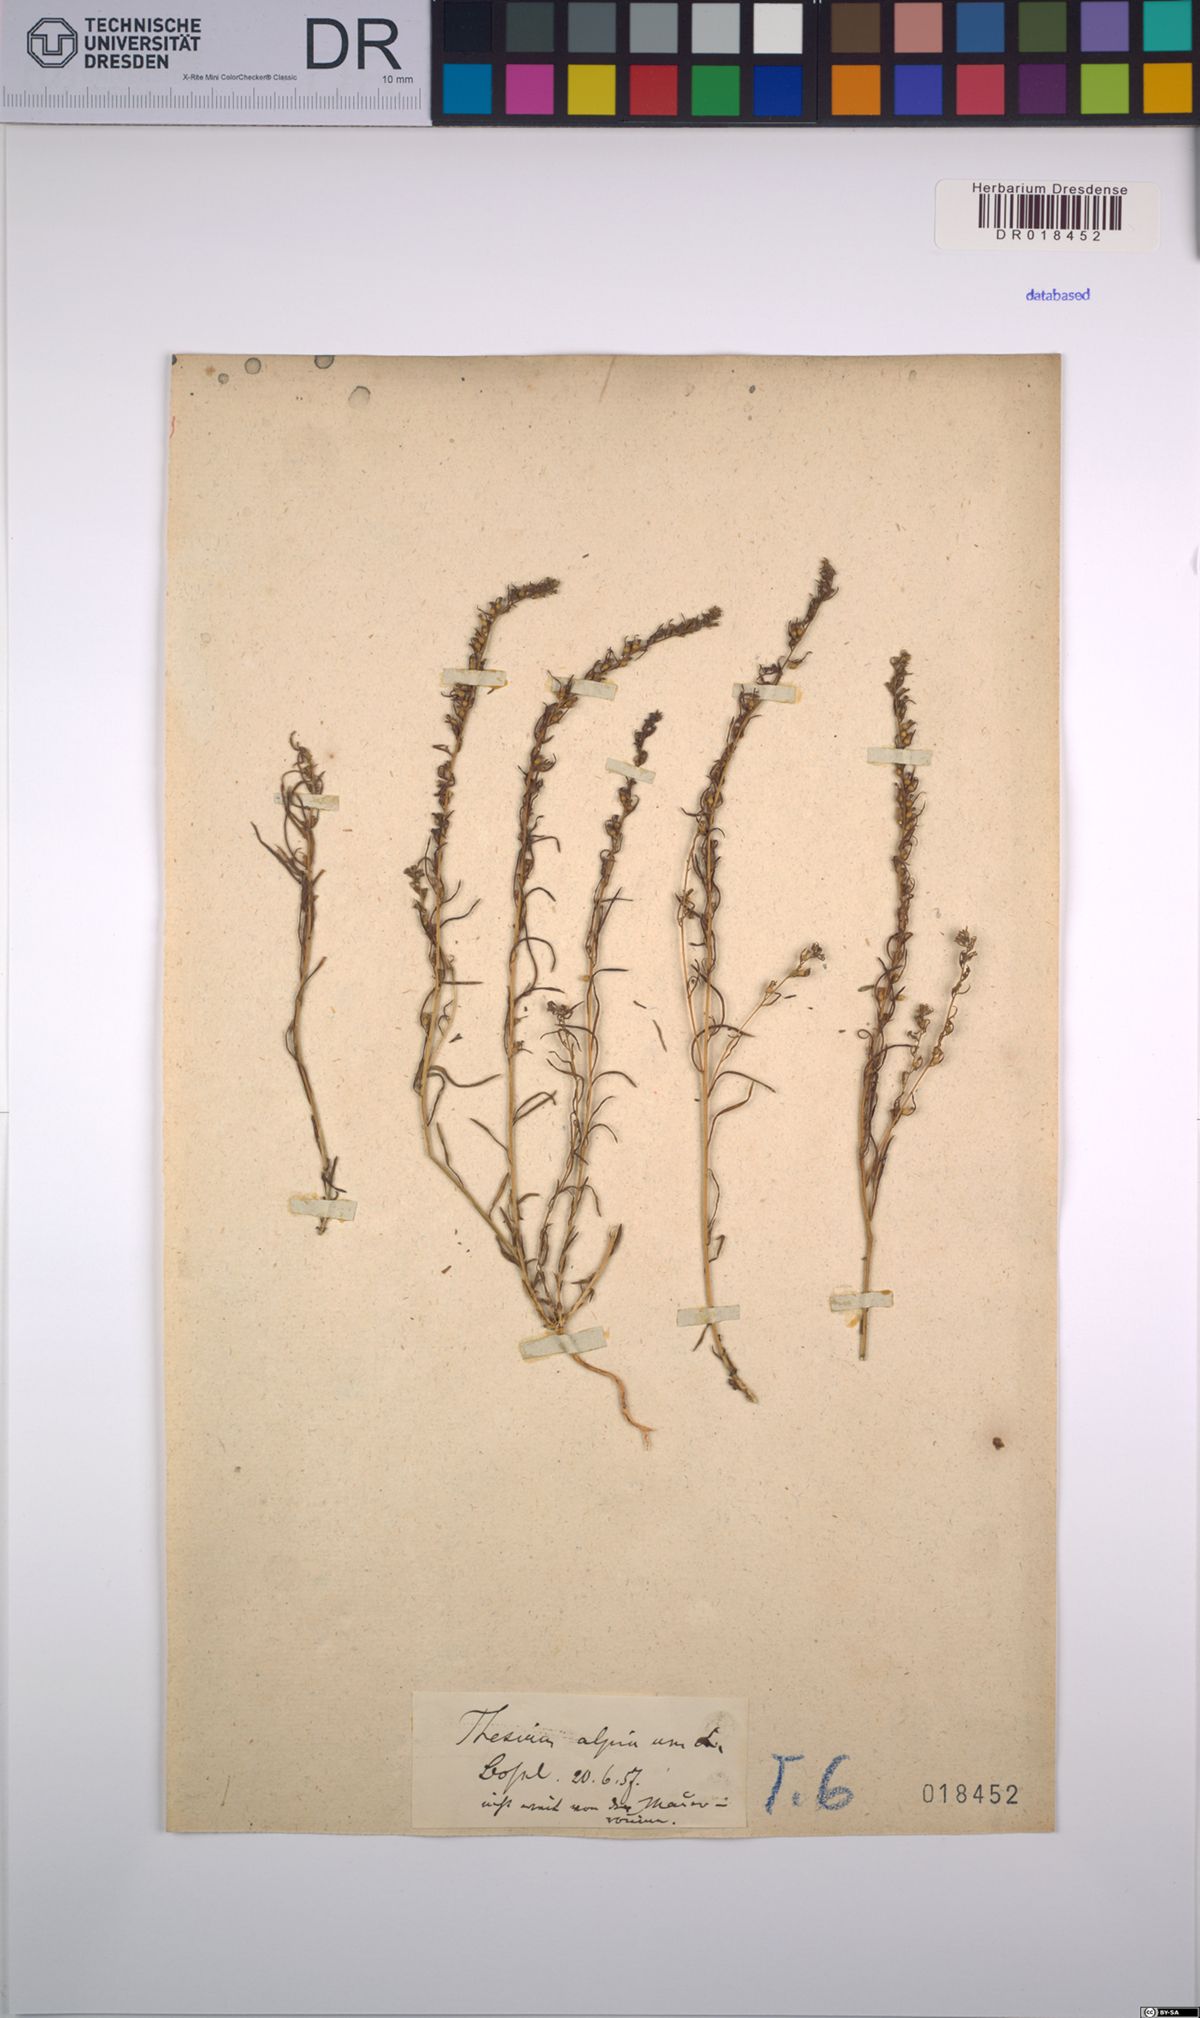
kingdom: Plantae
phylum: Tracheophyta
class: Magnoliopsida
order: Santalales
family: Thesiaceae
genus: Thesium
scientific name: Thesium alpinum
